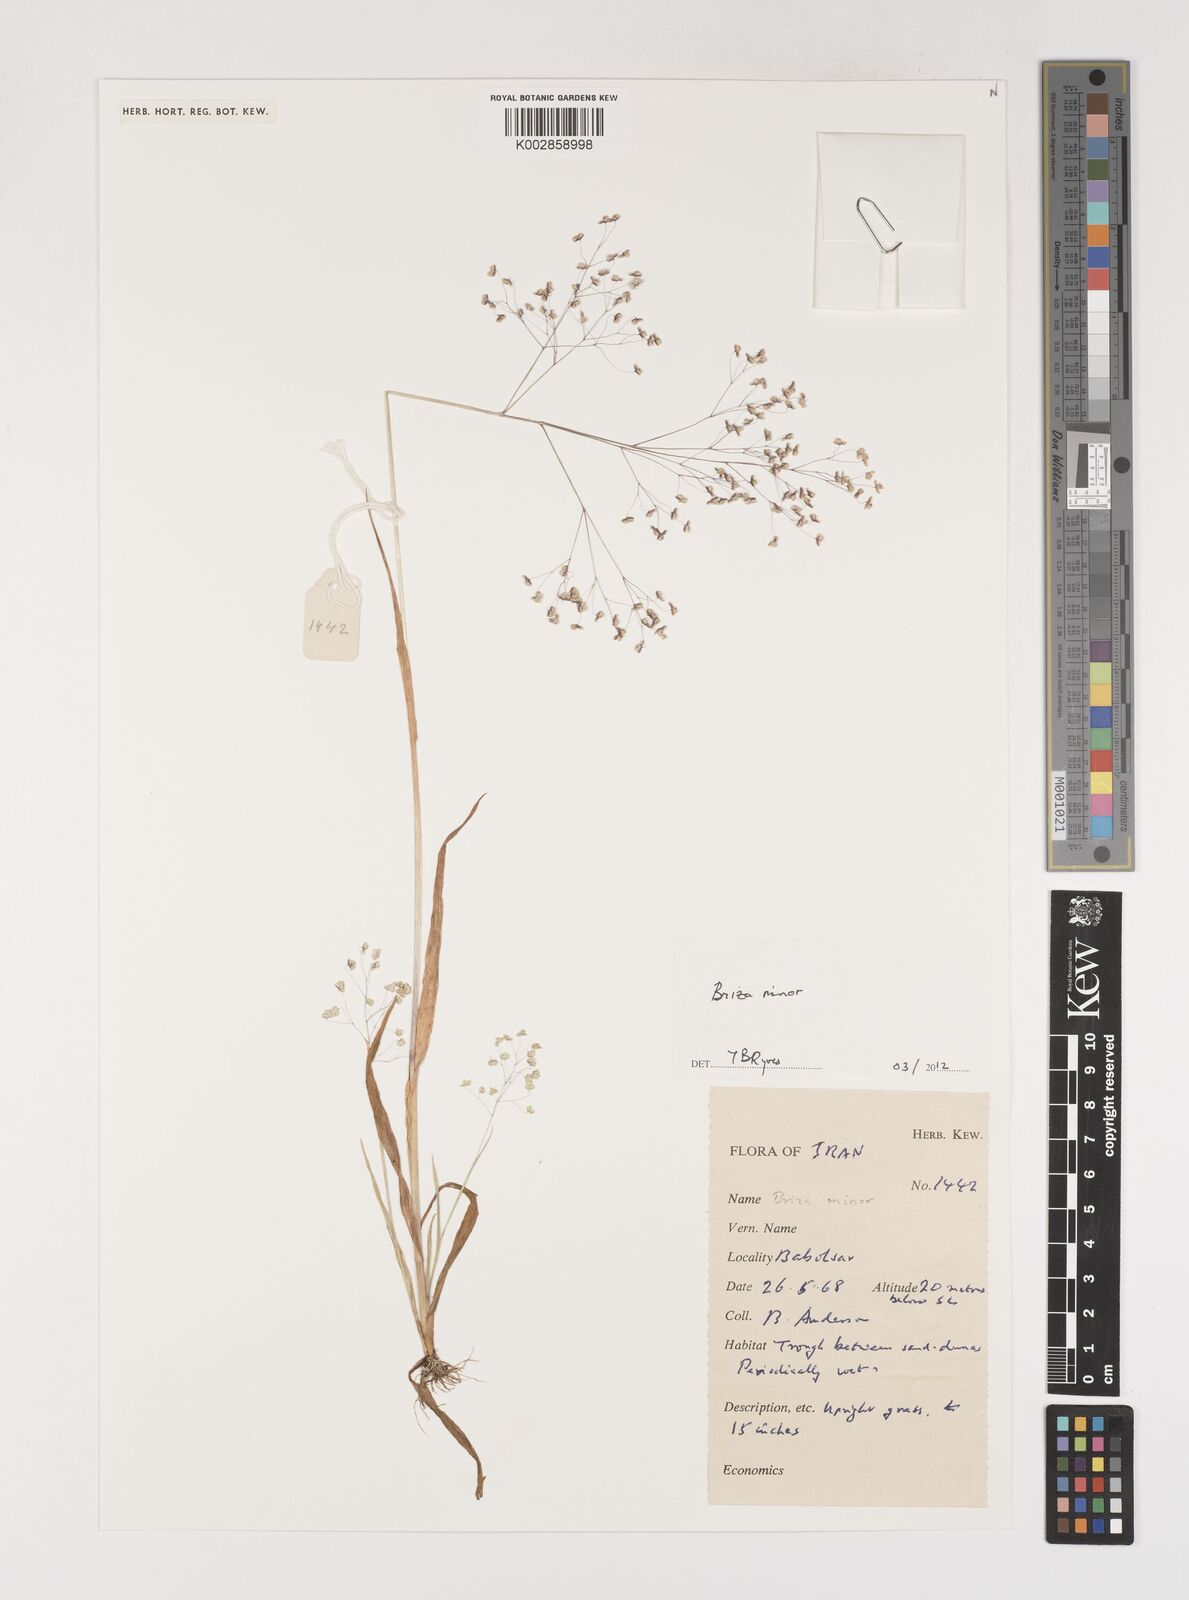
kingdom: Plantae
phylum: Tracheophyta
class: Liliopsida
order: Poales
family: Poaceae
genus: Briza
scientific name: Briza minor
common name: Lesser quaking-grass
